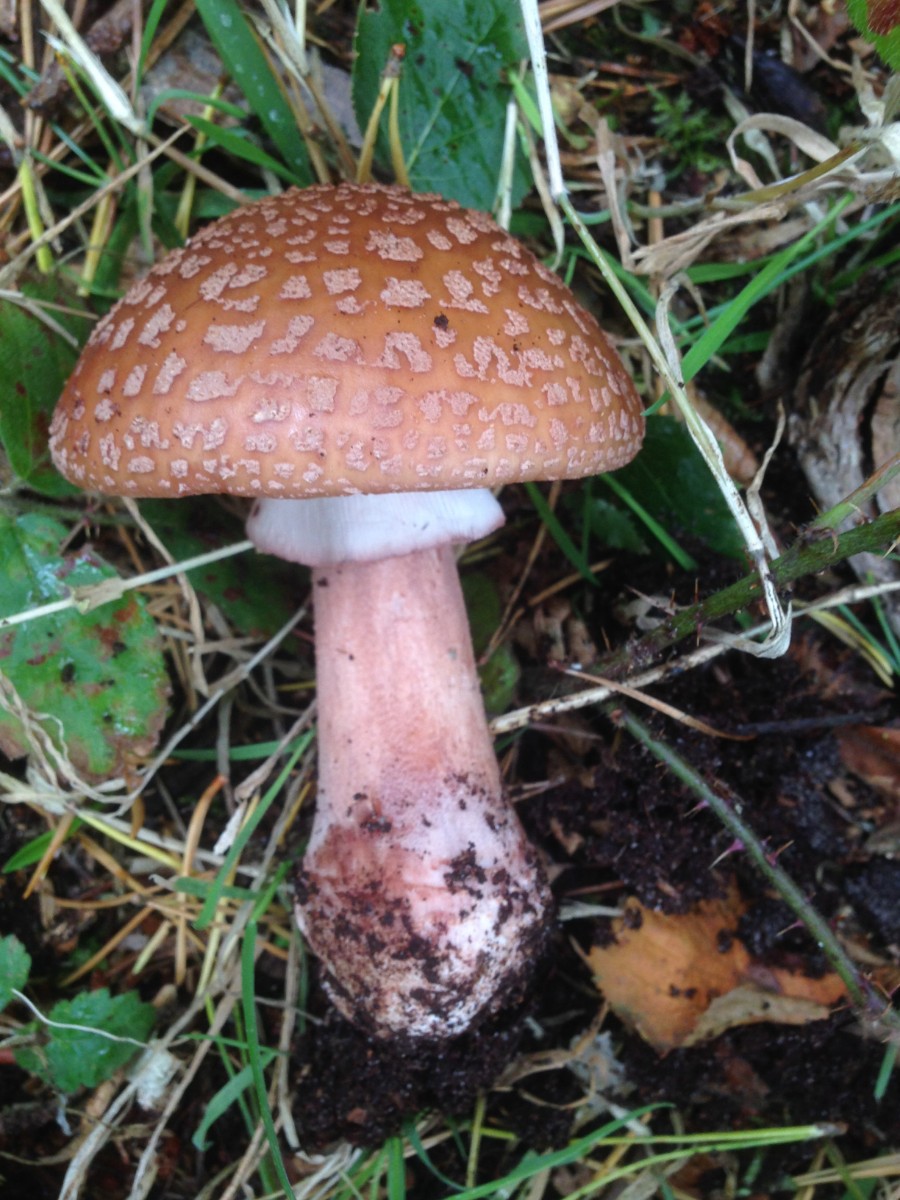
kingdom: Fungi
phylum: Basidiomycota
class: Agaricomycetes
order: Agaricales
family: Amanitaceae
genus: Amanita
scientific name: Amanita rubescens
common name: rødmende fluesvamp
